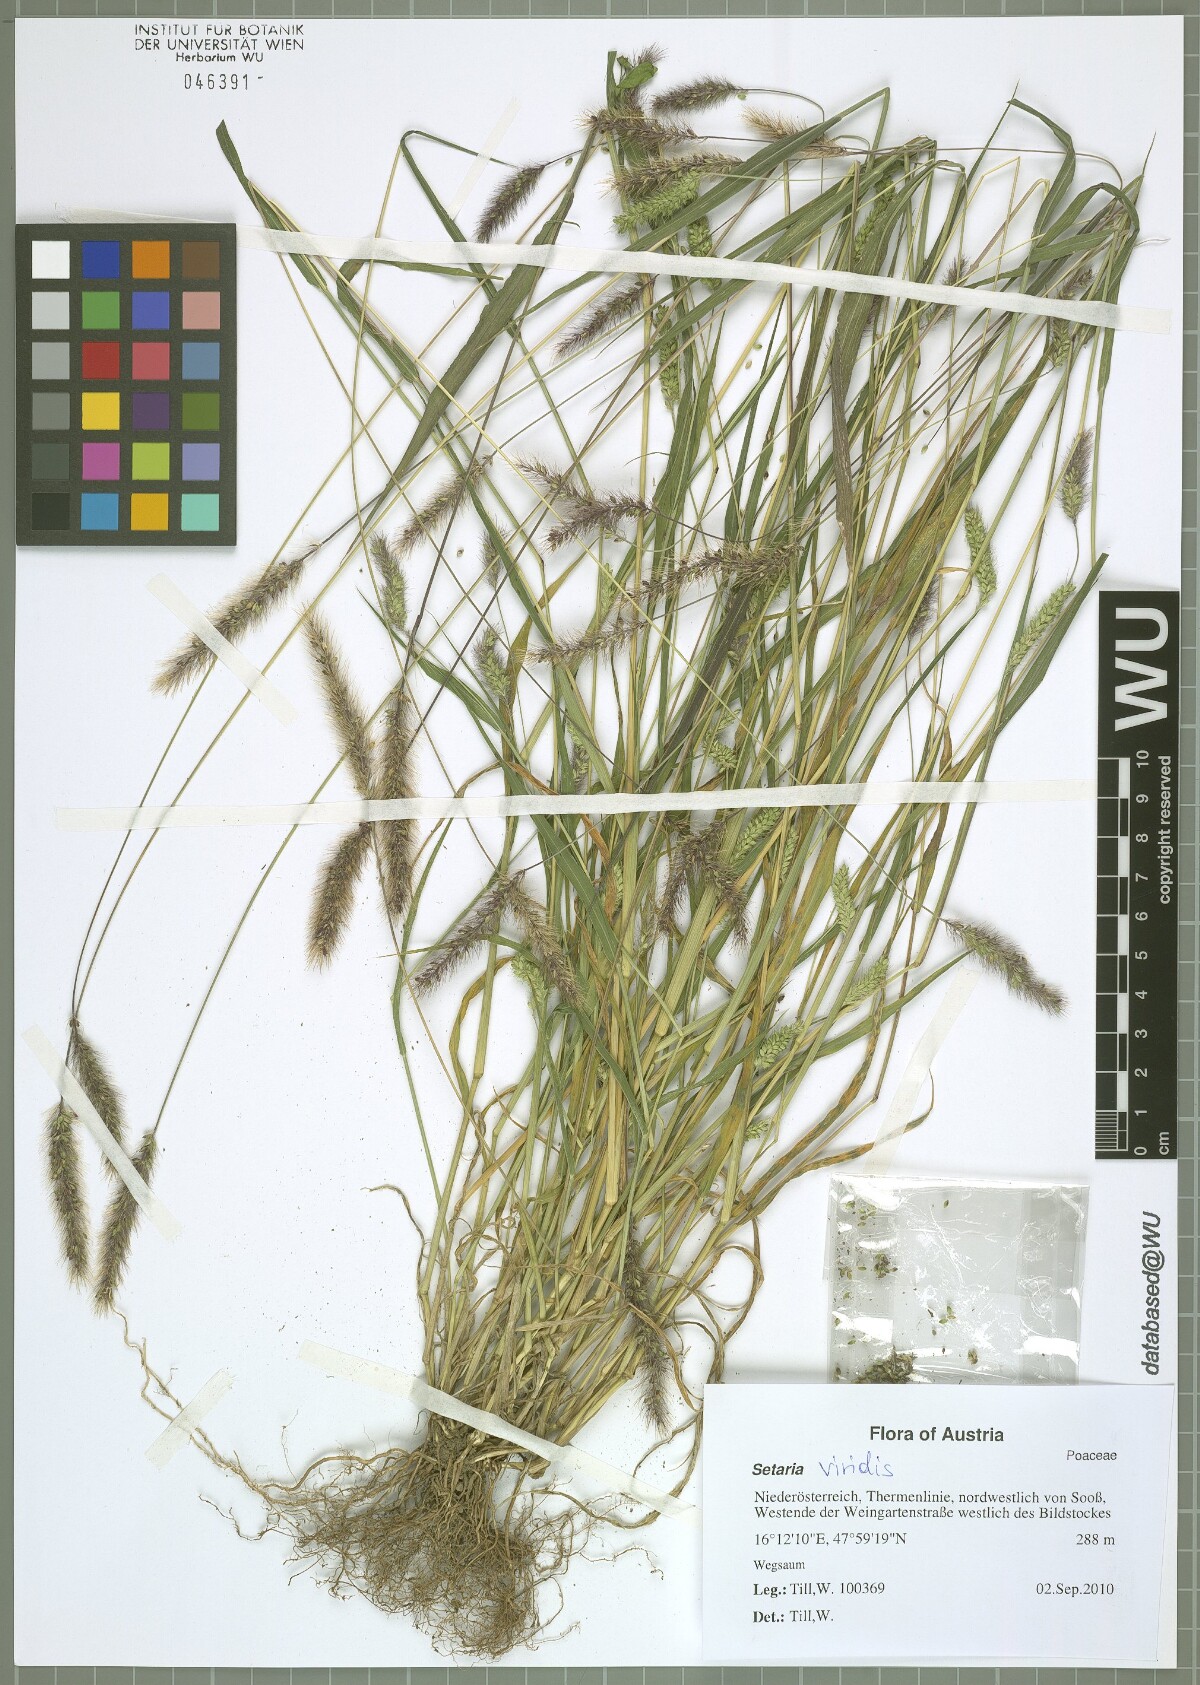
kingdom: Plantae
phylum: Tracheophyta
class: Liliopsida
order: Poales
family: Poaceae
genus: Setaria
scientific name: Setaria viridis
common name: Green bristlegrass
